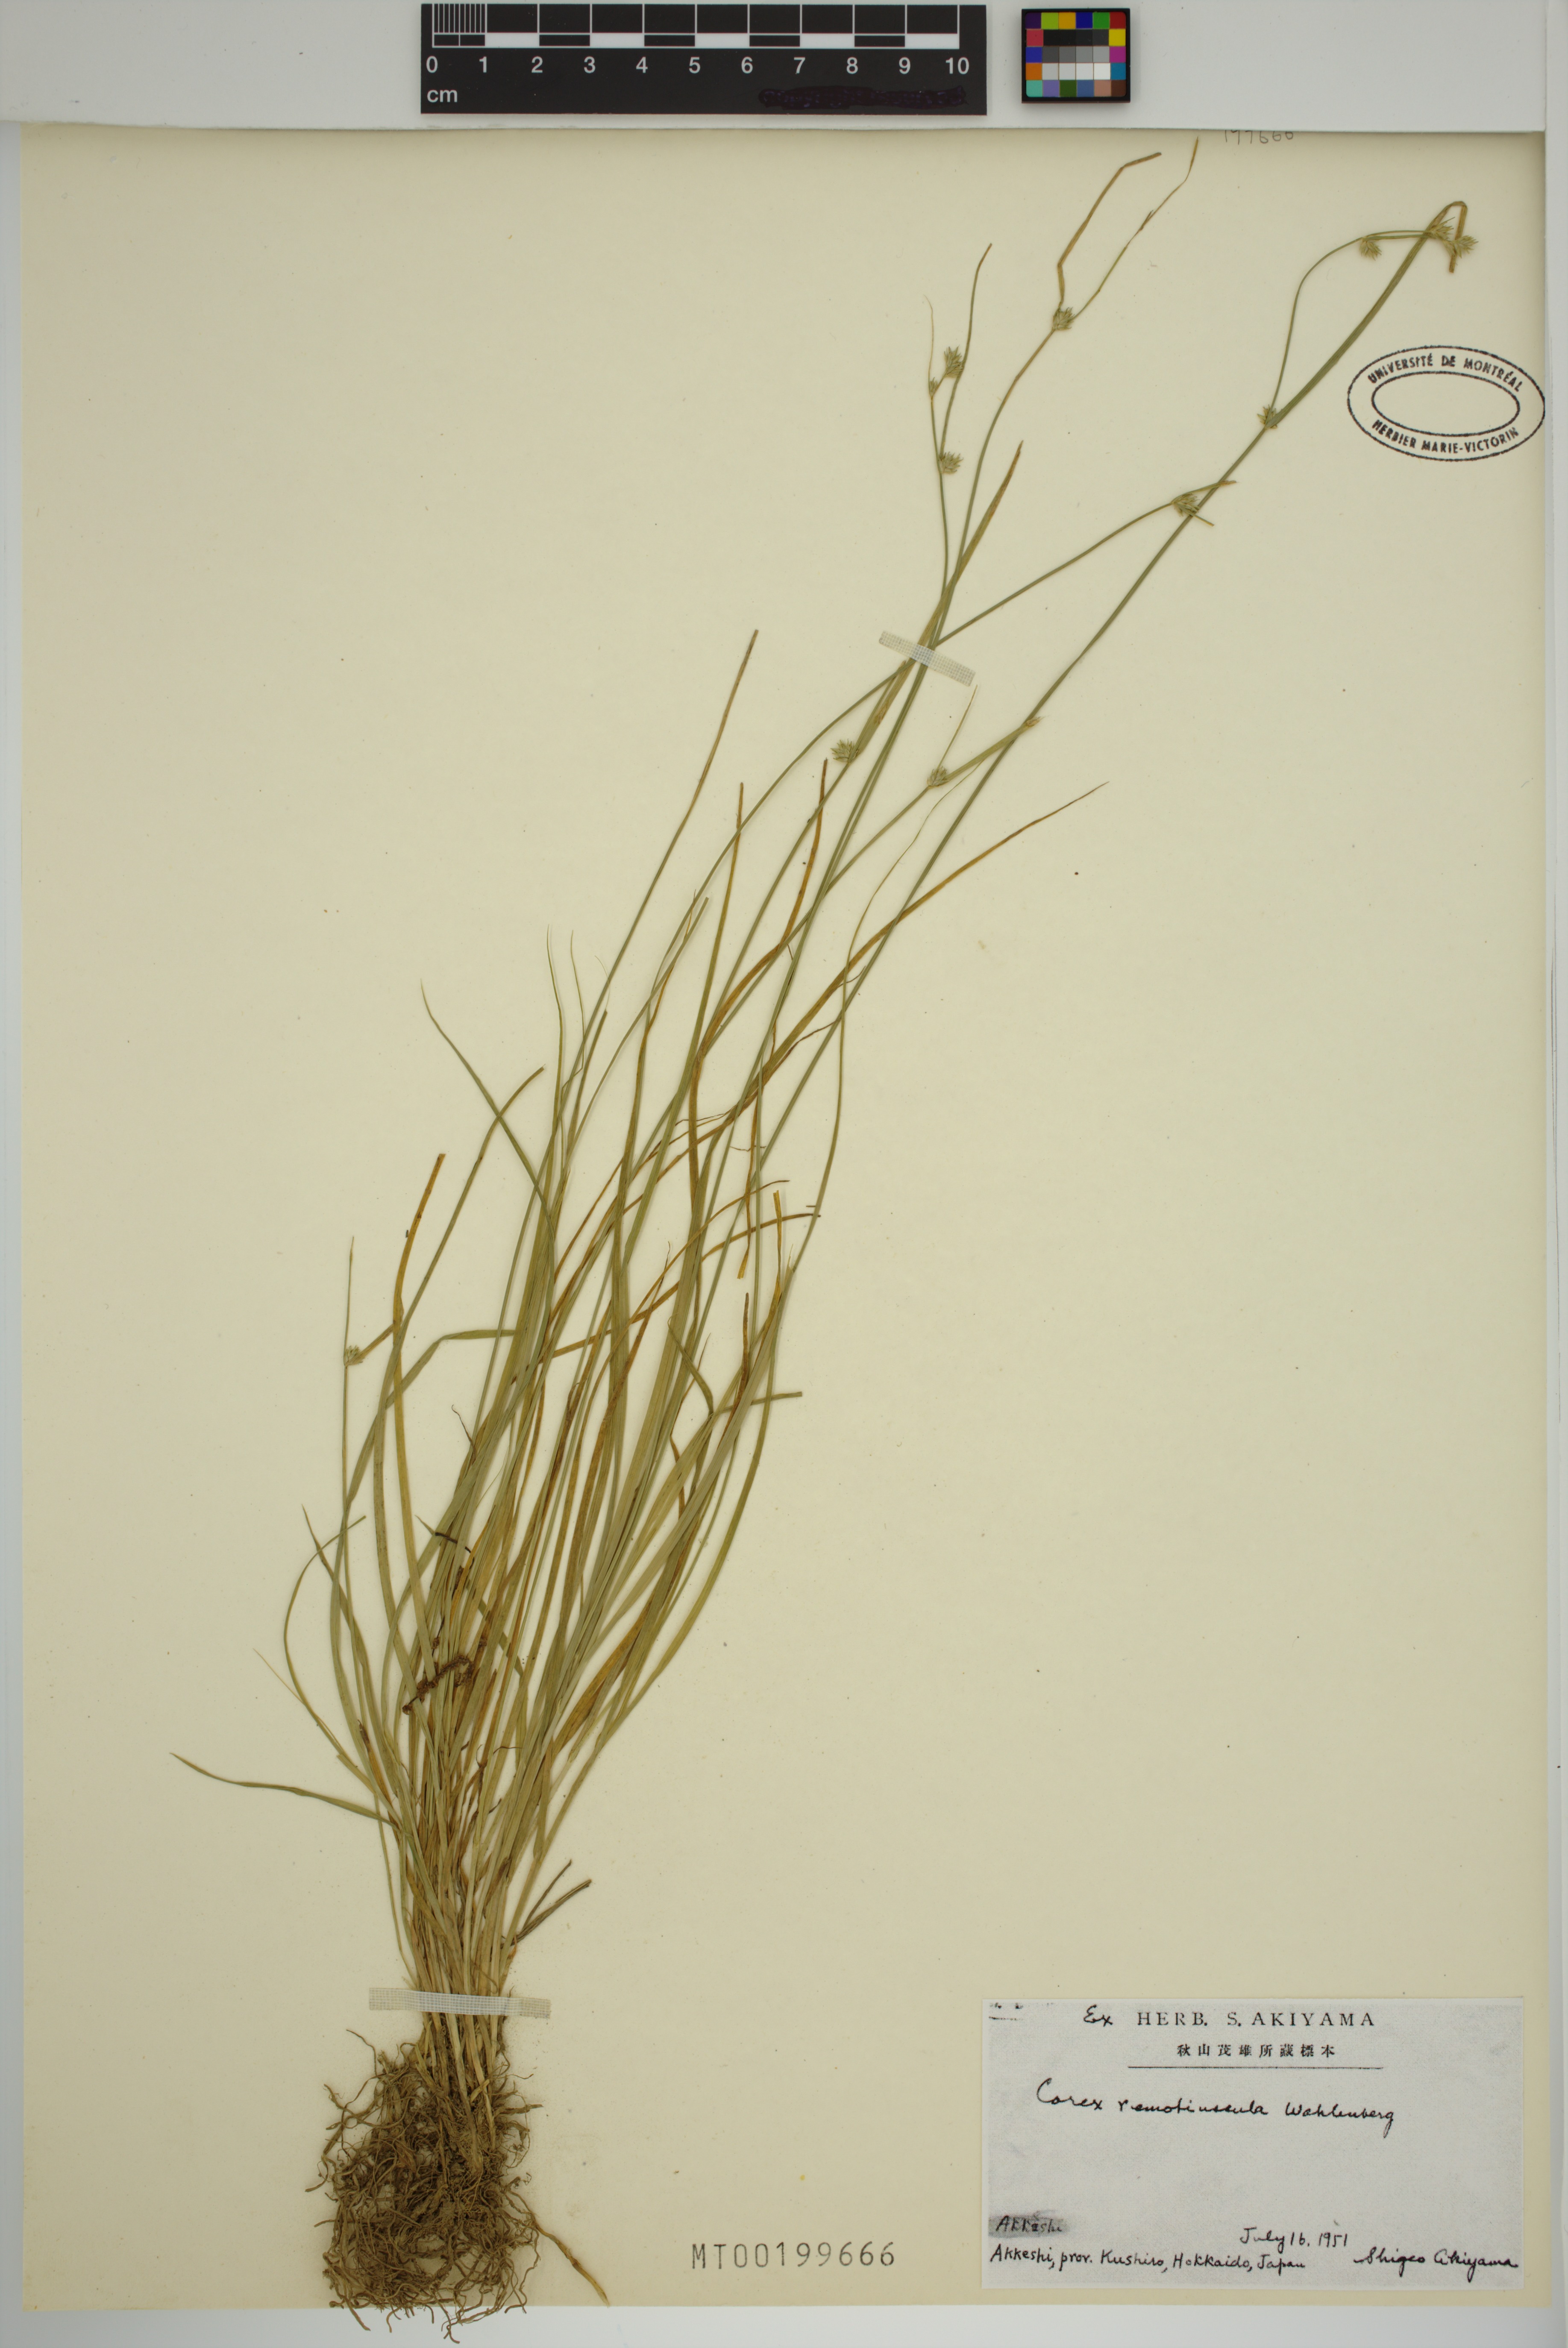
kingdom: Plantae
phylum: Tracheophyta
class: Liliopsida
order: Poales
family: Cyperaceae
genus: Carex
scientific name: Carex remotiuscula
